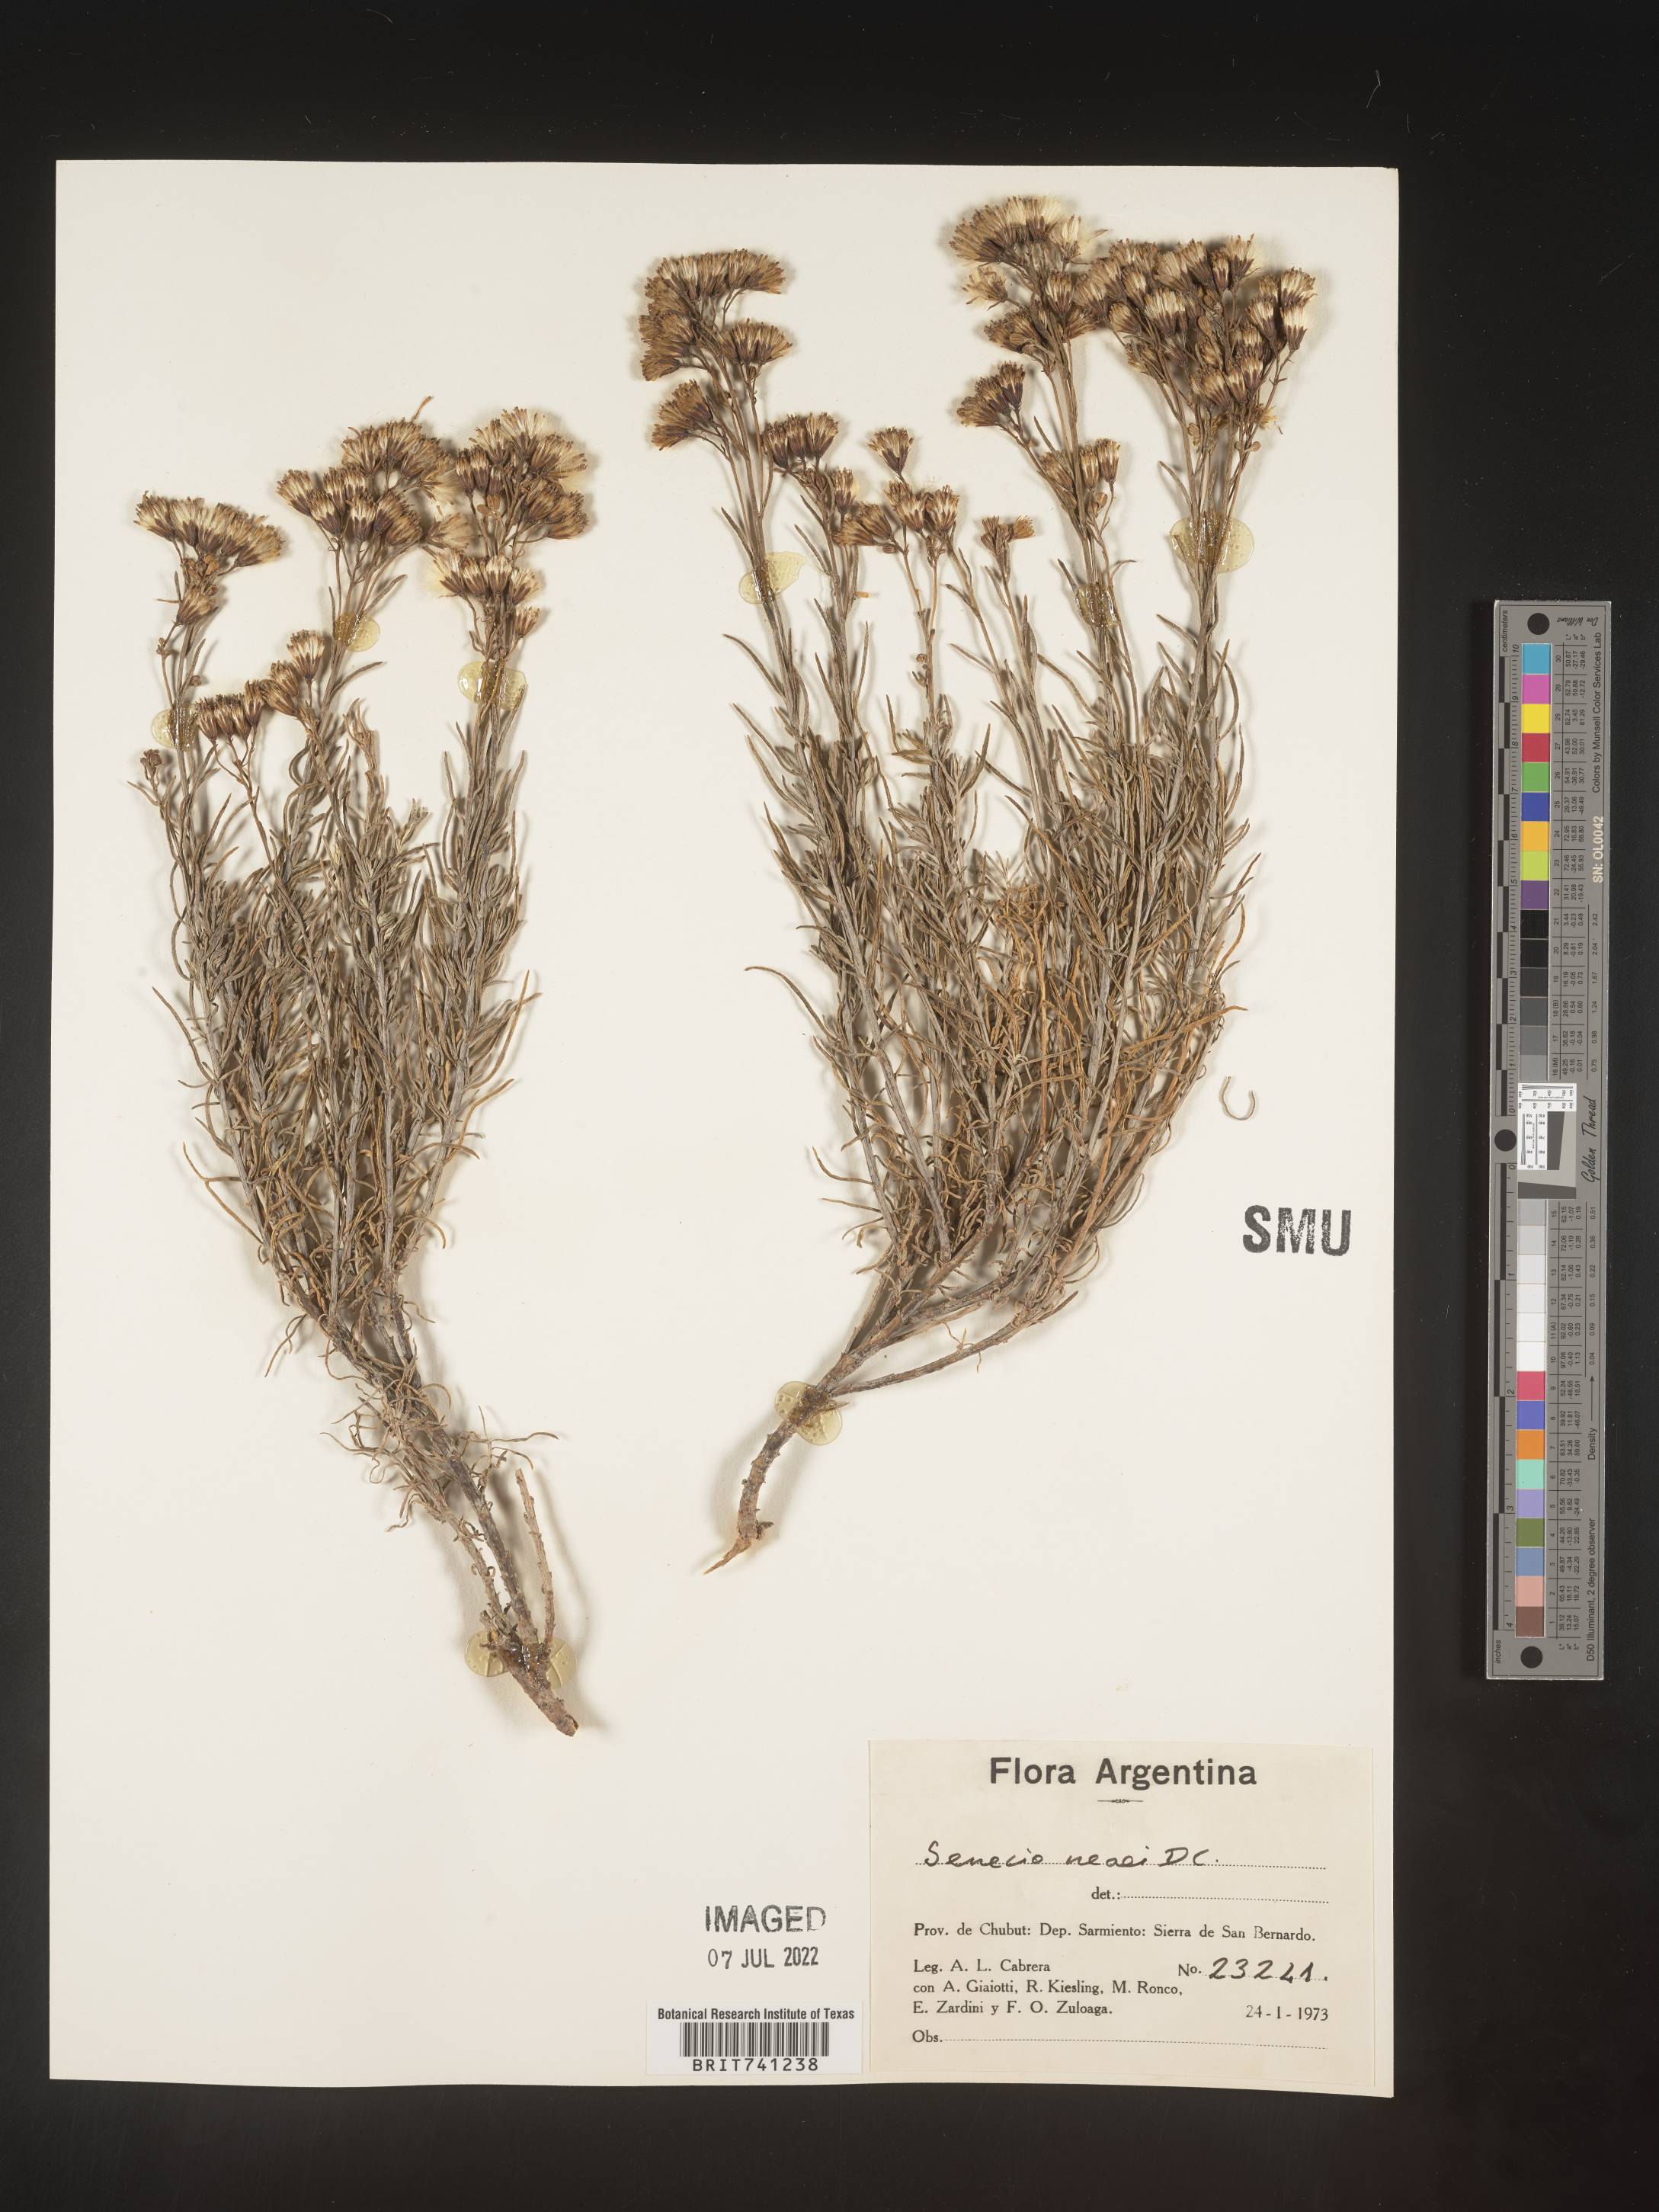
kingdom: Plantae
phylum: Tracheophyta
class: Magnoliopsida
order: Asterales
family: Asteraceae
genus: Senecio
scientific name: Senecio
